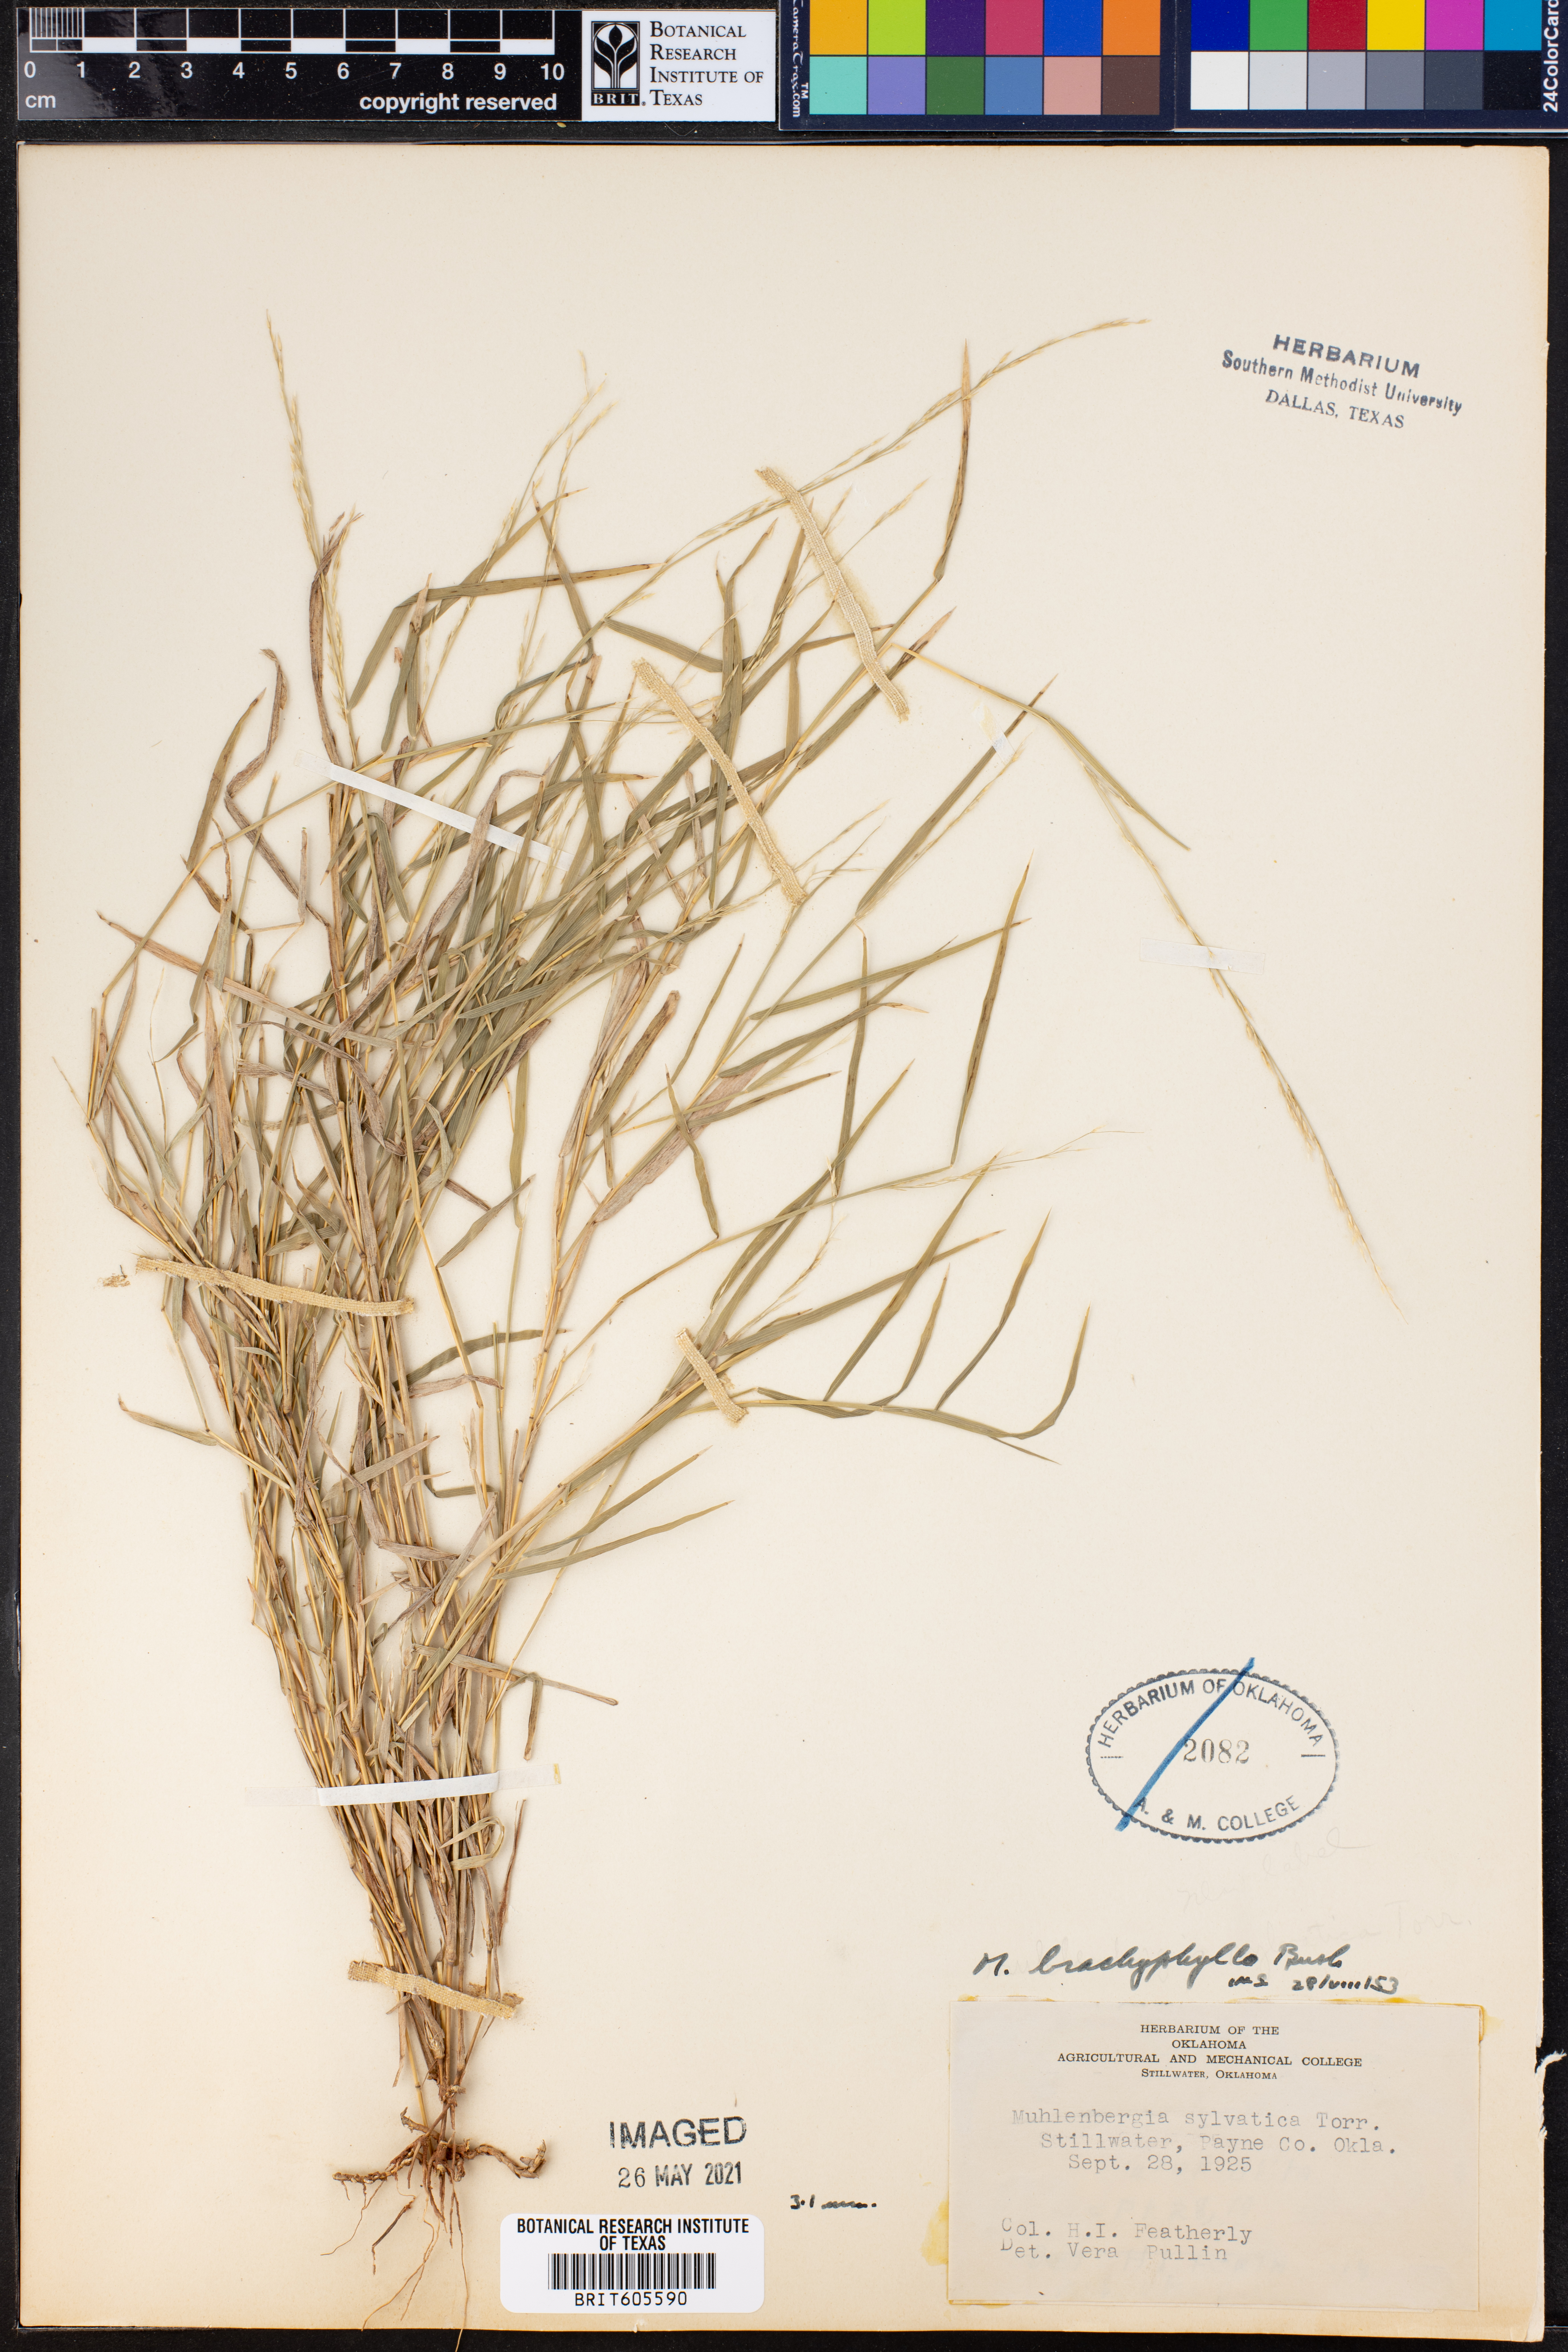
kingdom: Plantae
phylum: Tracheophyta
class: Liliopsida
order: Poales
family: Poaceae
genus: Muhlenbergia
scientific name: Muhlenbergia bushii
